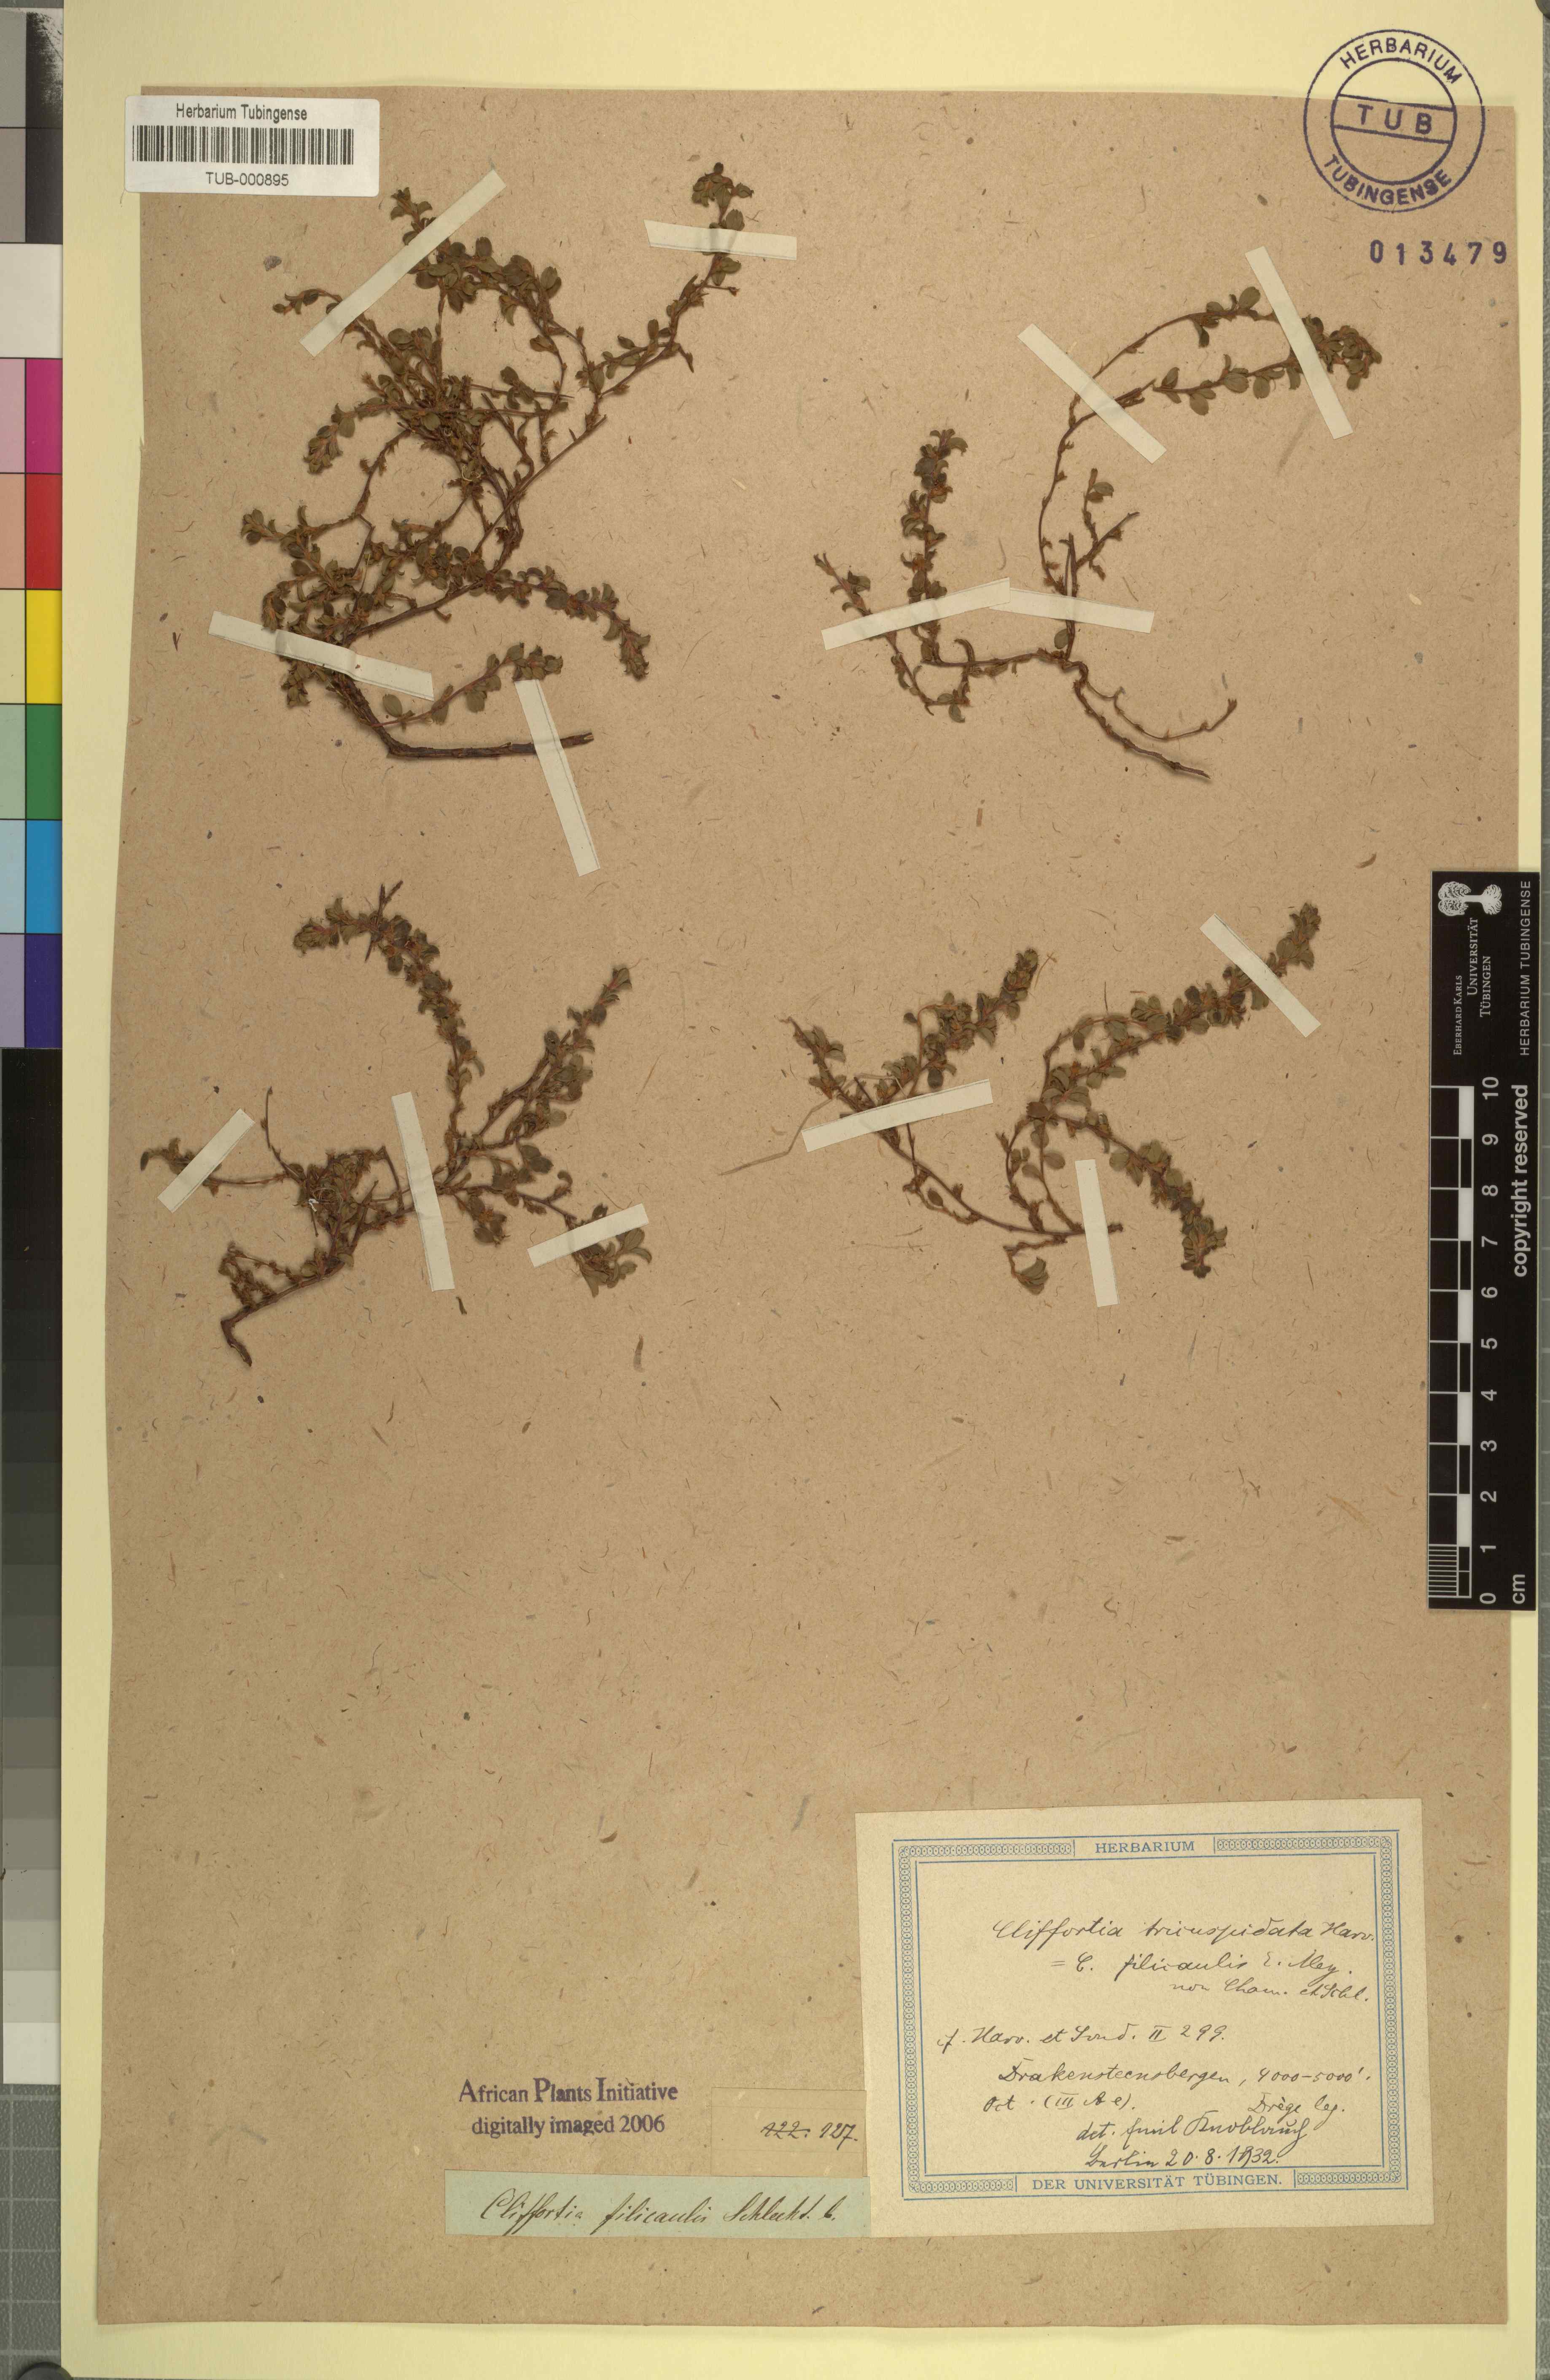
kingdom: Plantae
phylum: Tracheophyta
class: Magnoliopsida
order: Rosales
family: Rosaceae
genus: Cliffortia
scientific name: Cliffortia tricuspidata
